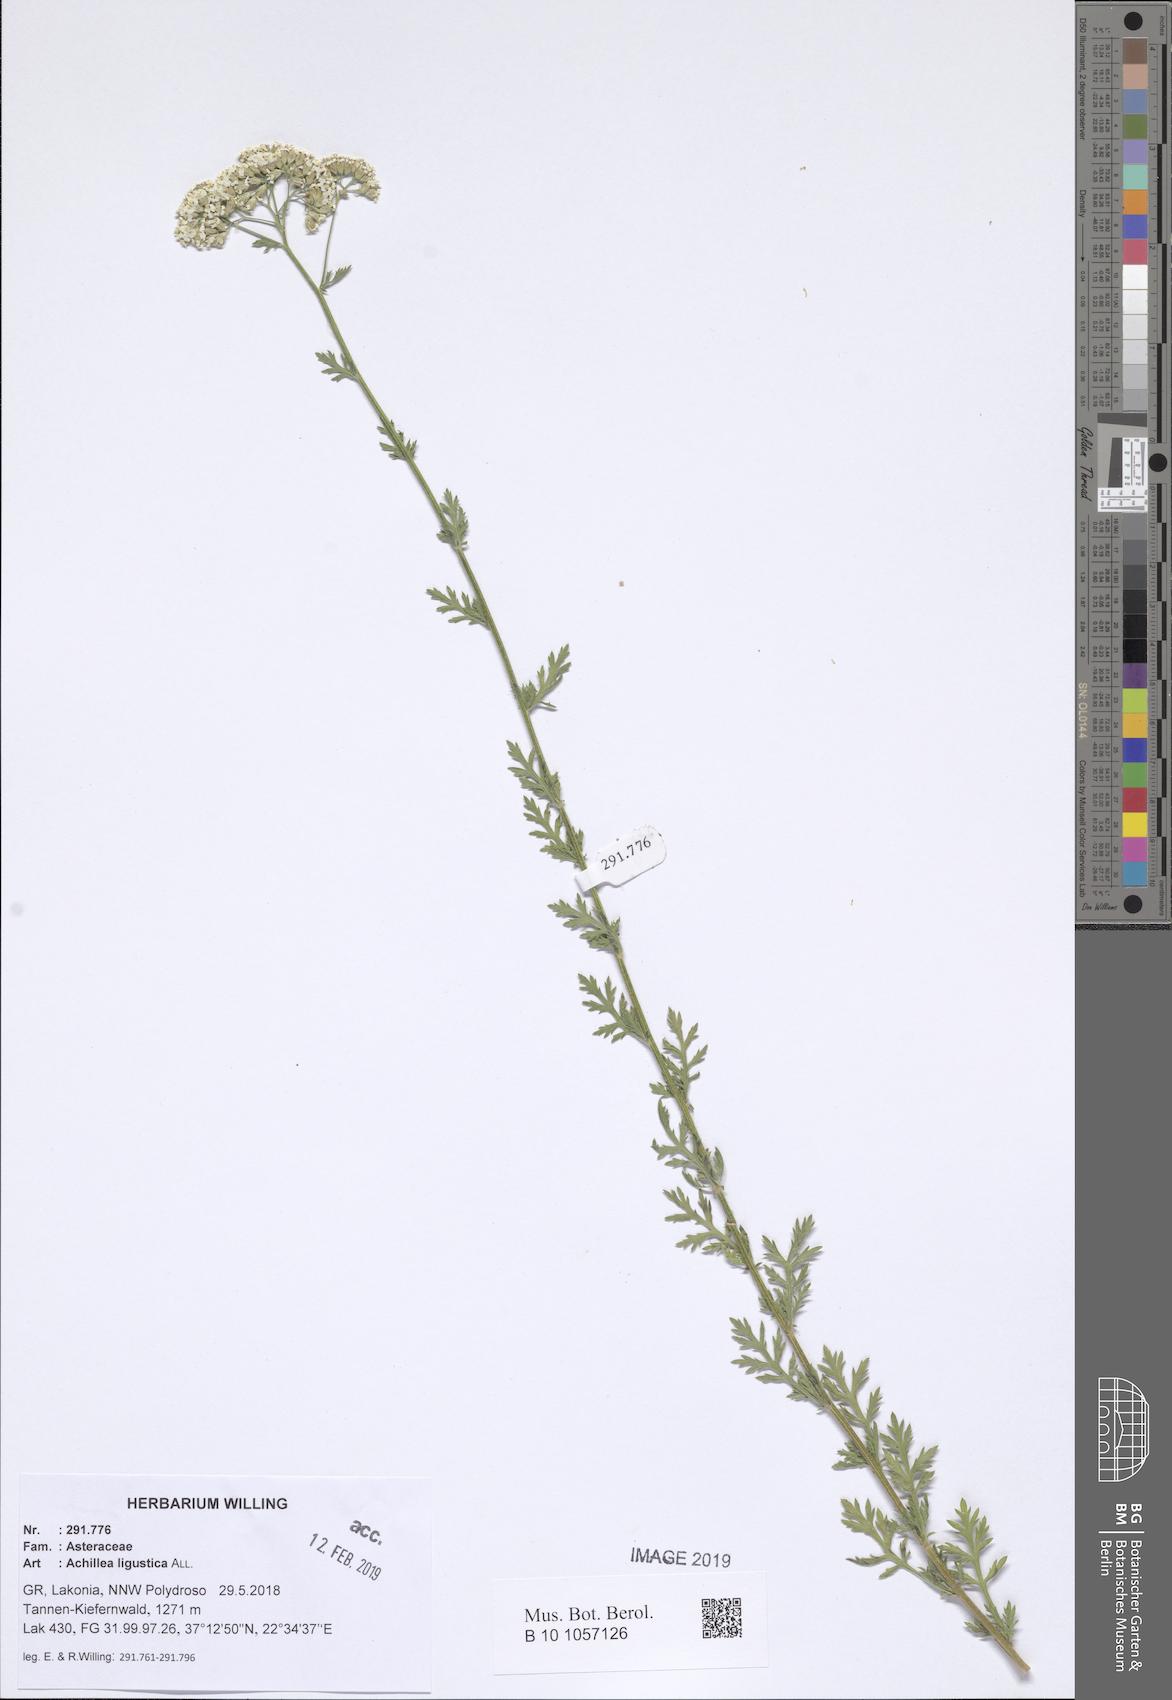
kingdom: Plantae
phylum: Tracheophyta
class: Magnoliopsida
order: Asterales
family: Asteraceae
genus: Achillea
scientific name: Achillea ligustica
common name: Southern yarrow
